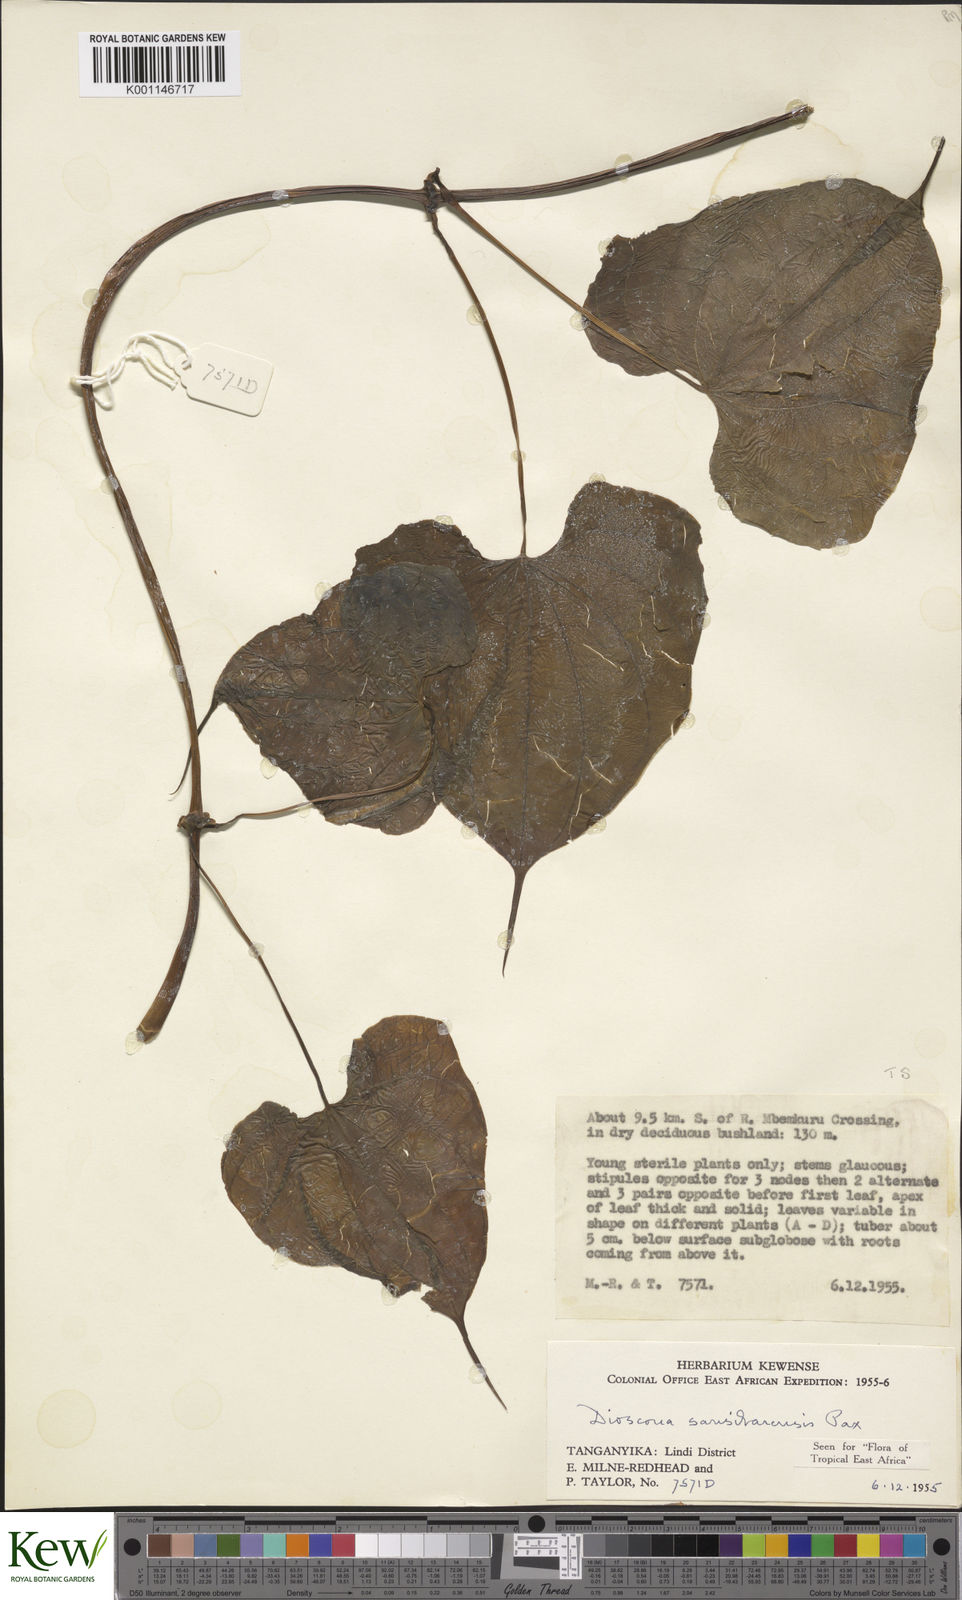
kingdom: Plantae
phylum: Tracheophyta
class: Liliopsida
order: Dioscoreales
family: Dioscoreaceae
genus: Dioscorea
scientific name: Dioscorea sansibarensis
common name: Zanzibar yam
